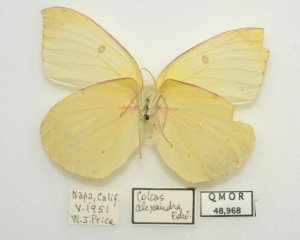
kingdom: Animalia
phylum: Arthropoda
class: Insecta
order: Lepidoptera
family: Pieridae
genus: Colias
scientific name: Colias alexandra
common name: Queen Alexandra's Sulphur
